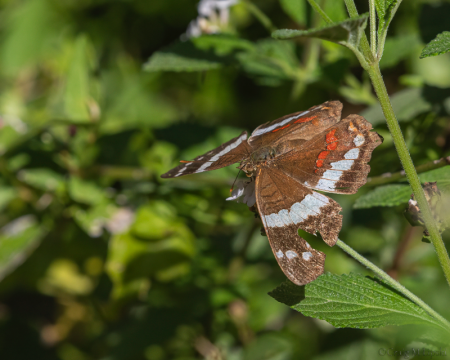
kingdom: Animalia
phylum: Arthropoda
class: Insecta
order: Lepidoptera
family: Nymphalidae
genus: Anartia
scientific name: Anartia fatima
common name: Banded Peacock
